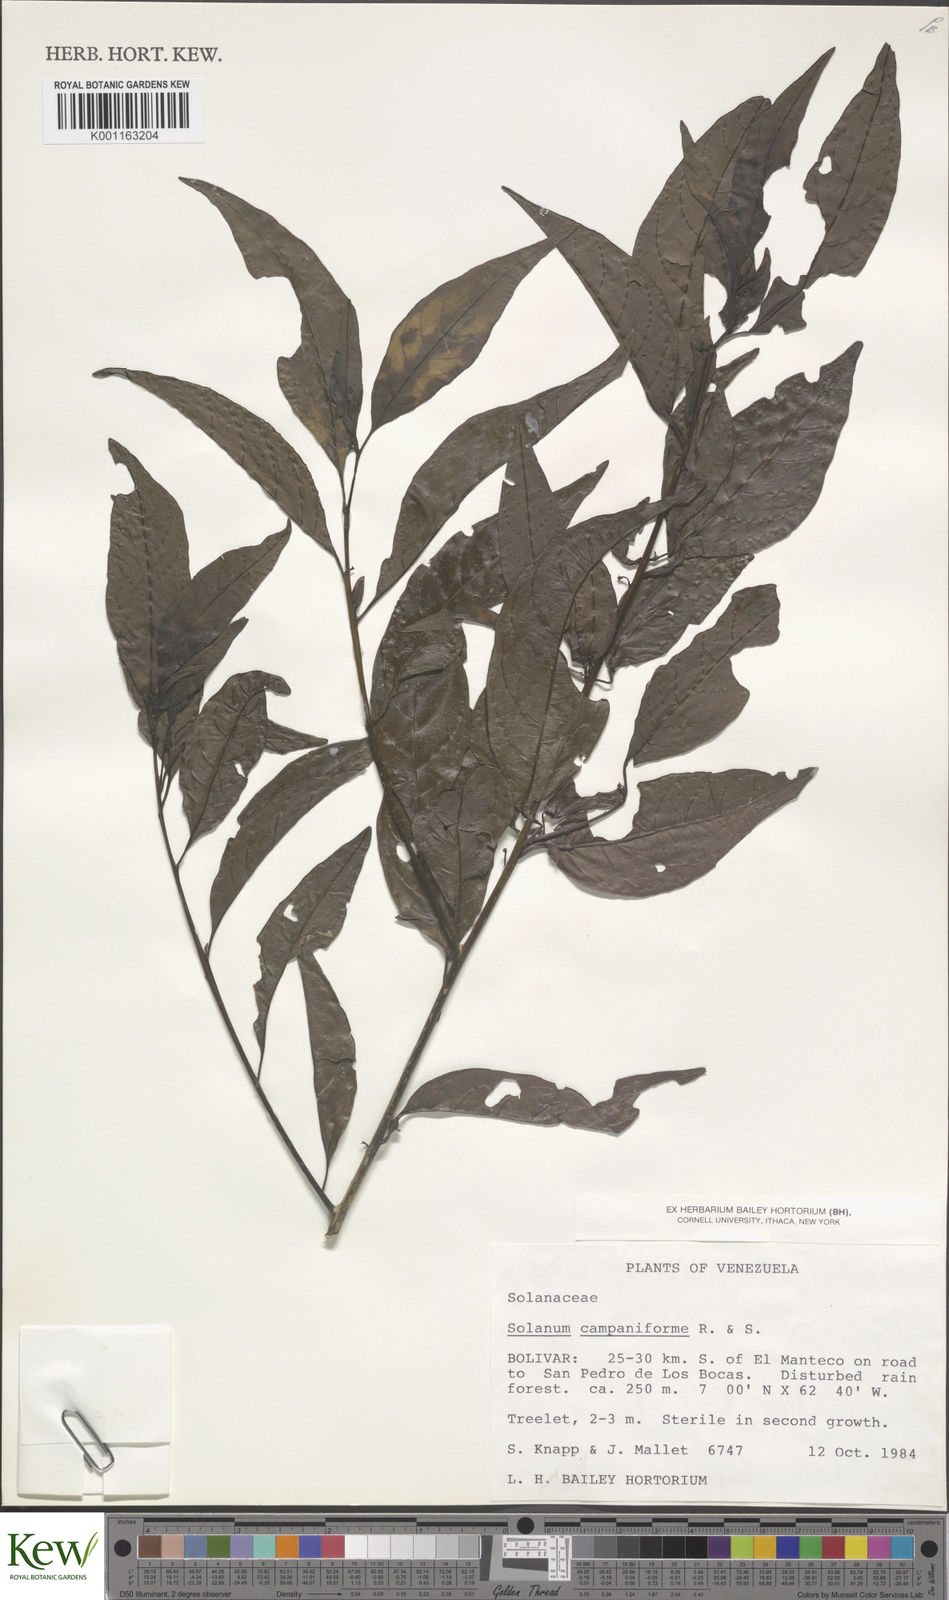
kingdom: Plantae
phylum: Tracheophyta
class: Magnoliopsida
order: Solanales
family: Solanaceae
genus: Solanum
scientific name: Solanum campaniforme
